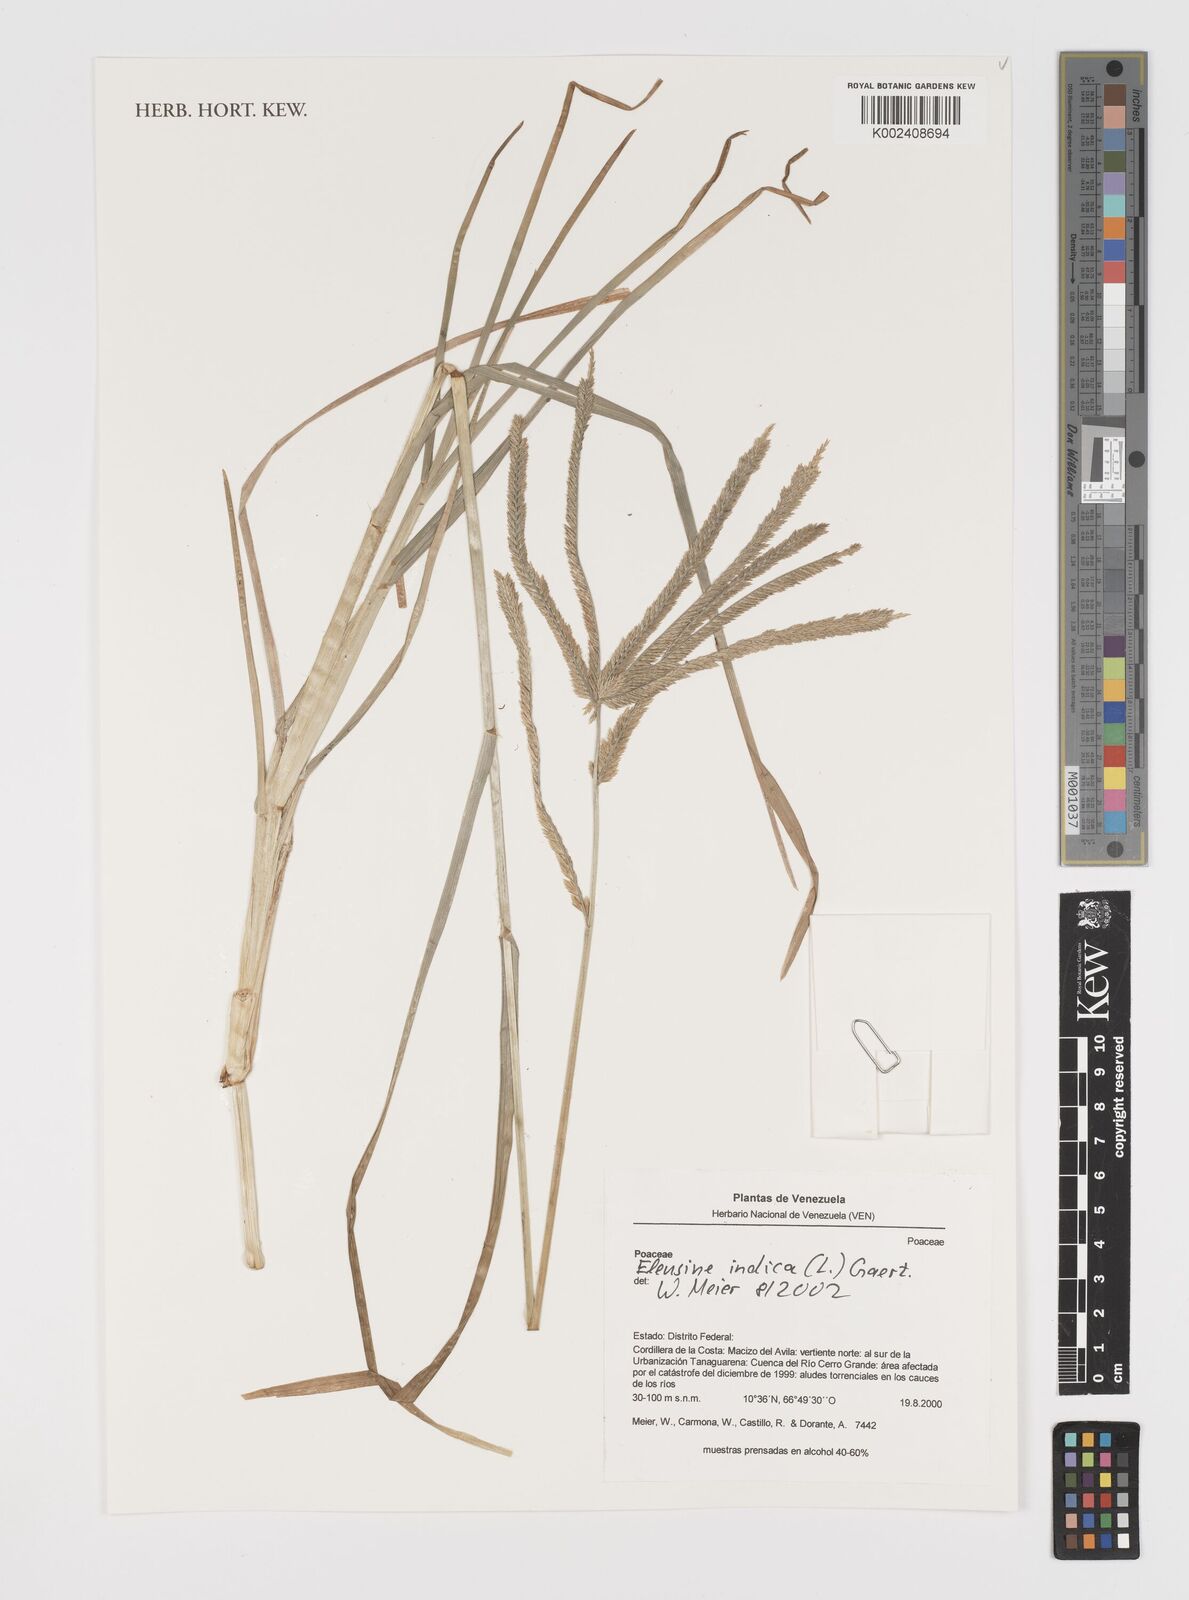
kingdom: Plantae
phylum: Tracheophyta
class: Liliopsida
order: Poales
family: Poaceae
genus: Eleusine
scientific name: Eleusine indica
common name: Yard-grass
